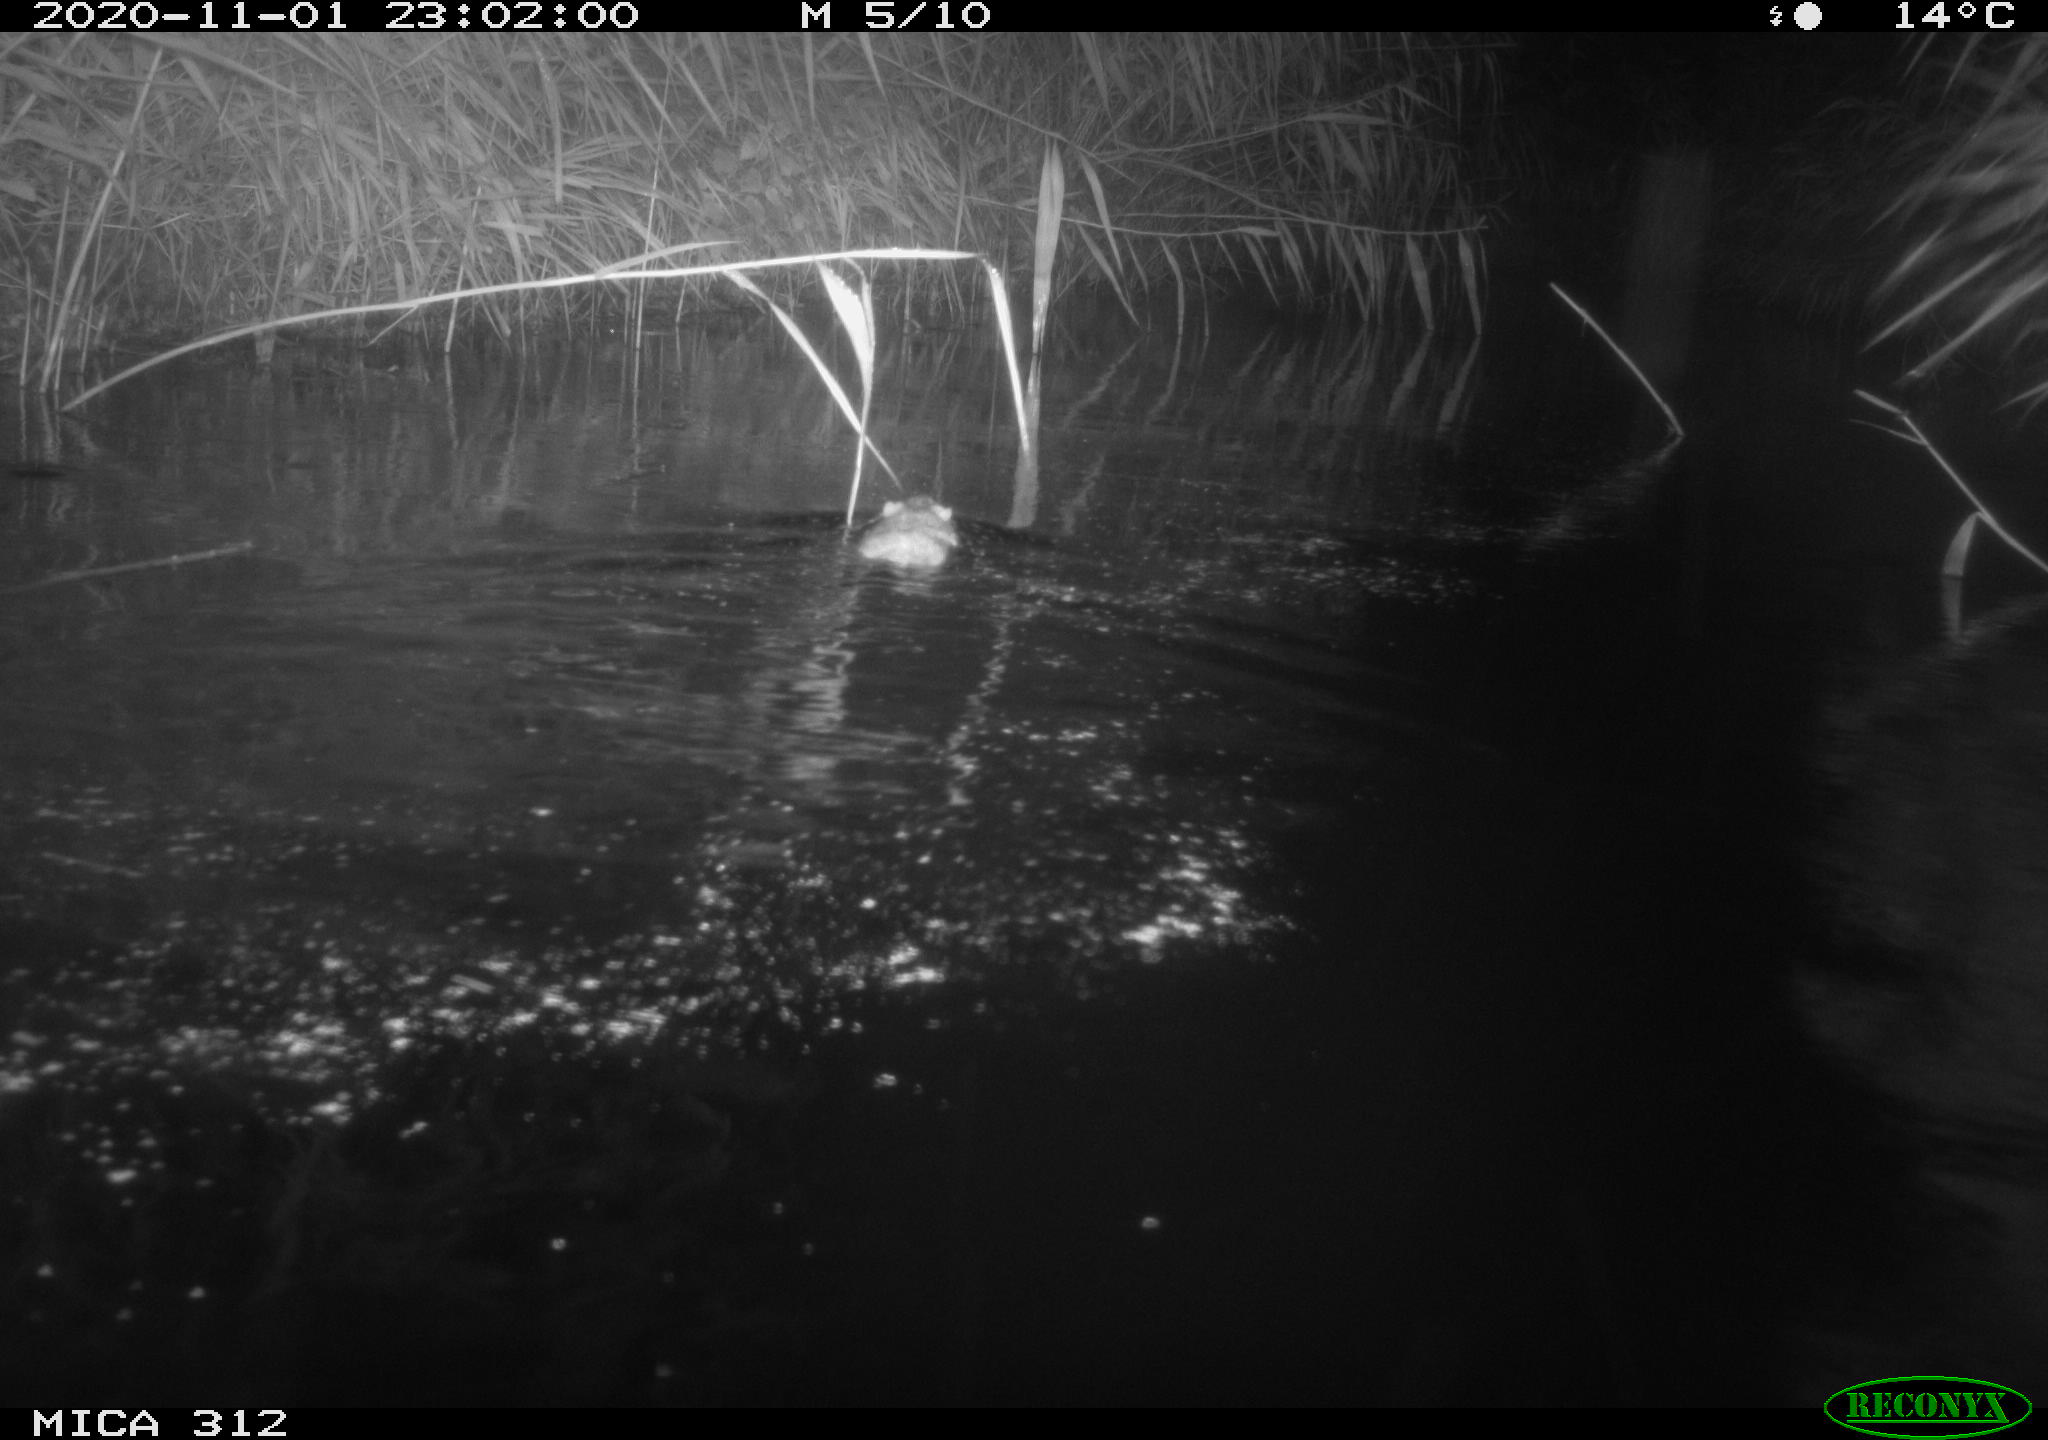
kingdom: Animalia
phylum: Chordata
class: Mammalia
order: Rodentia
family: Cricetidae
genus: Ondatra
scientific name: Ondatra zibethicus
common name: Muskrat
